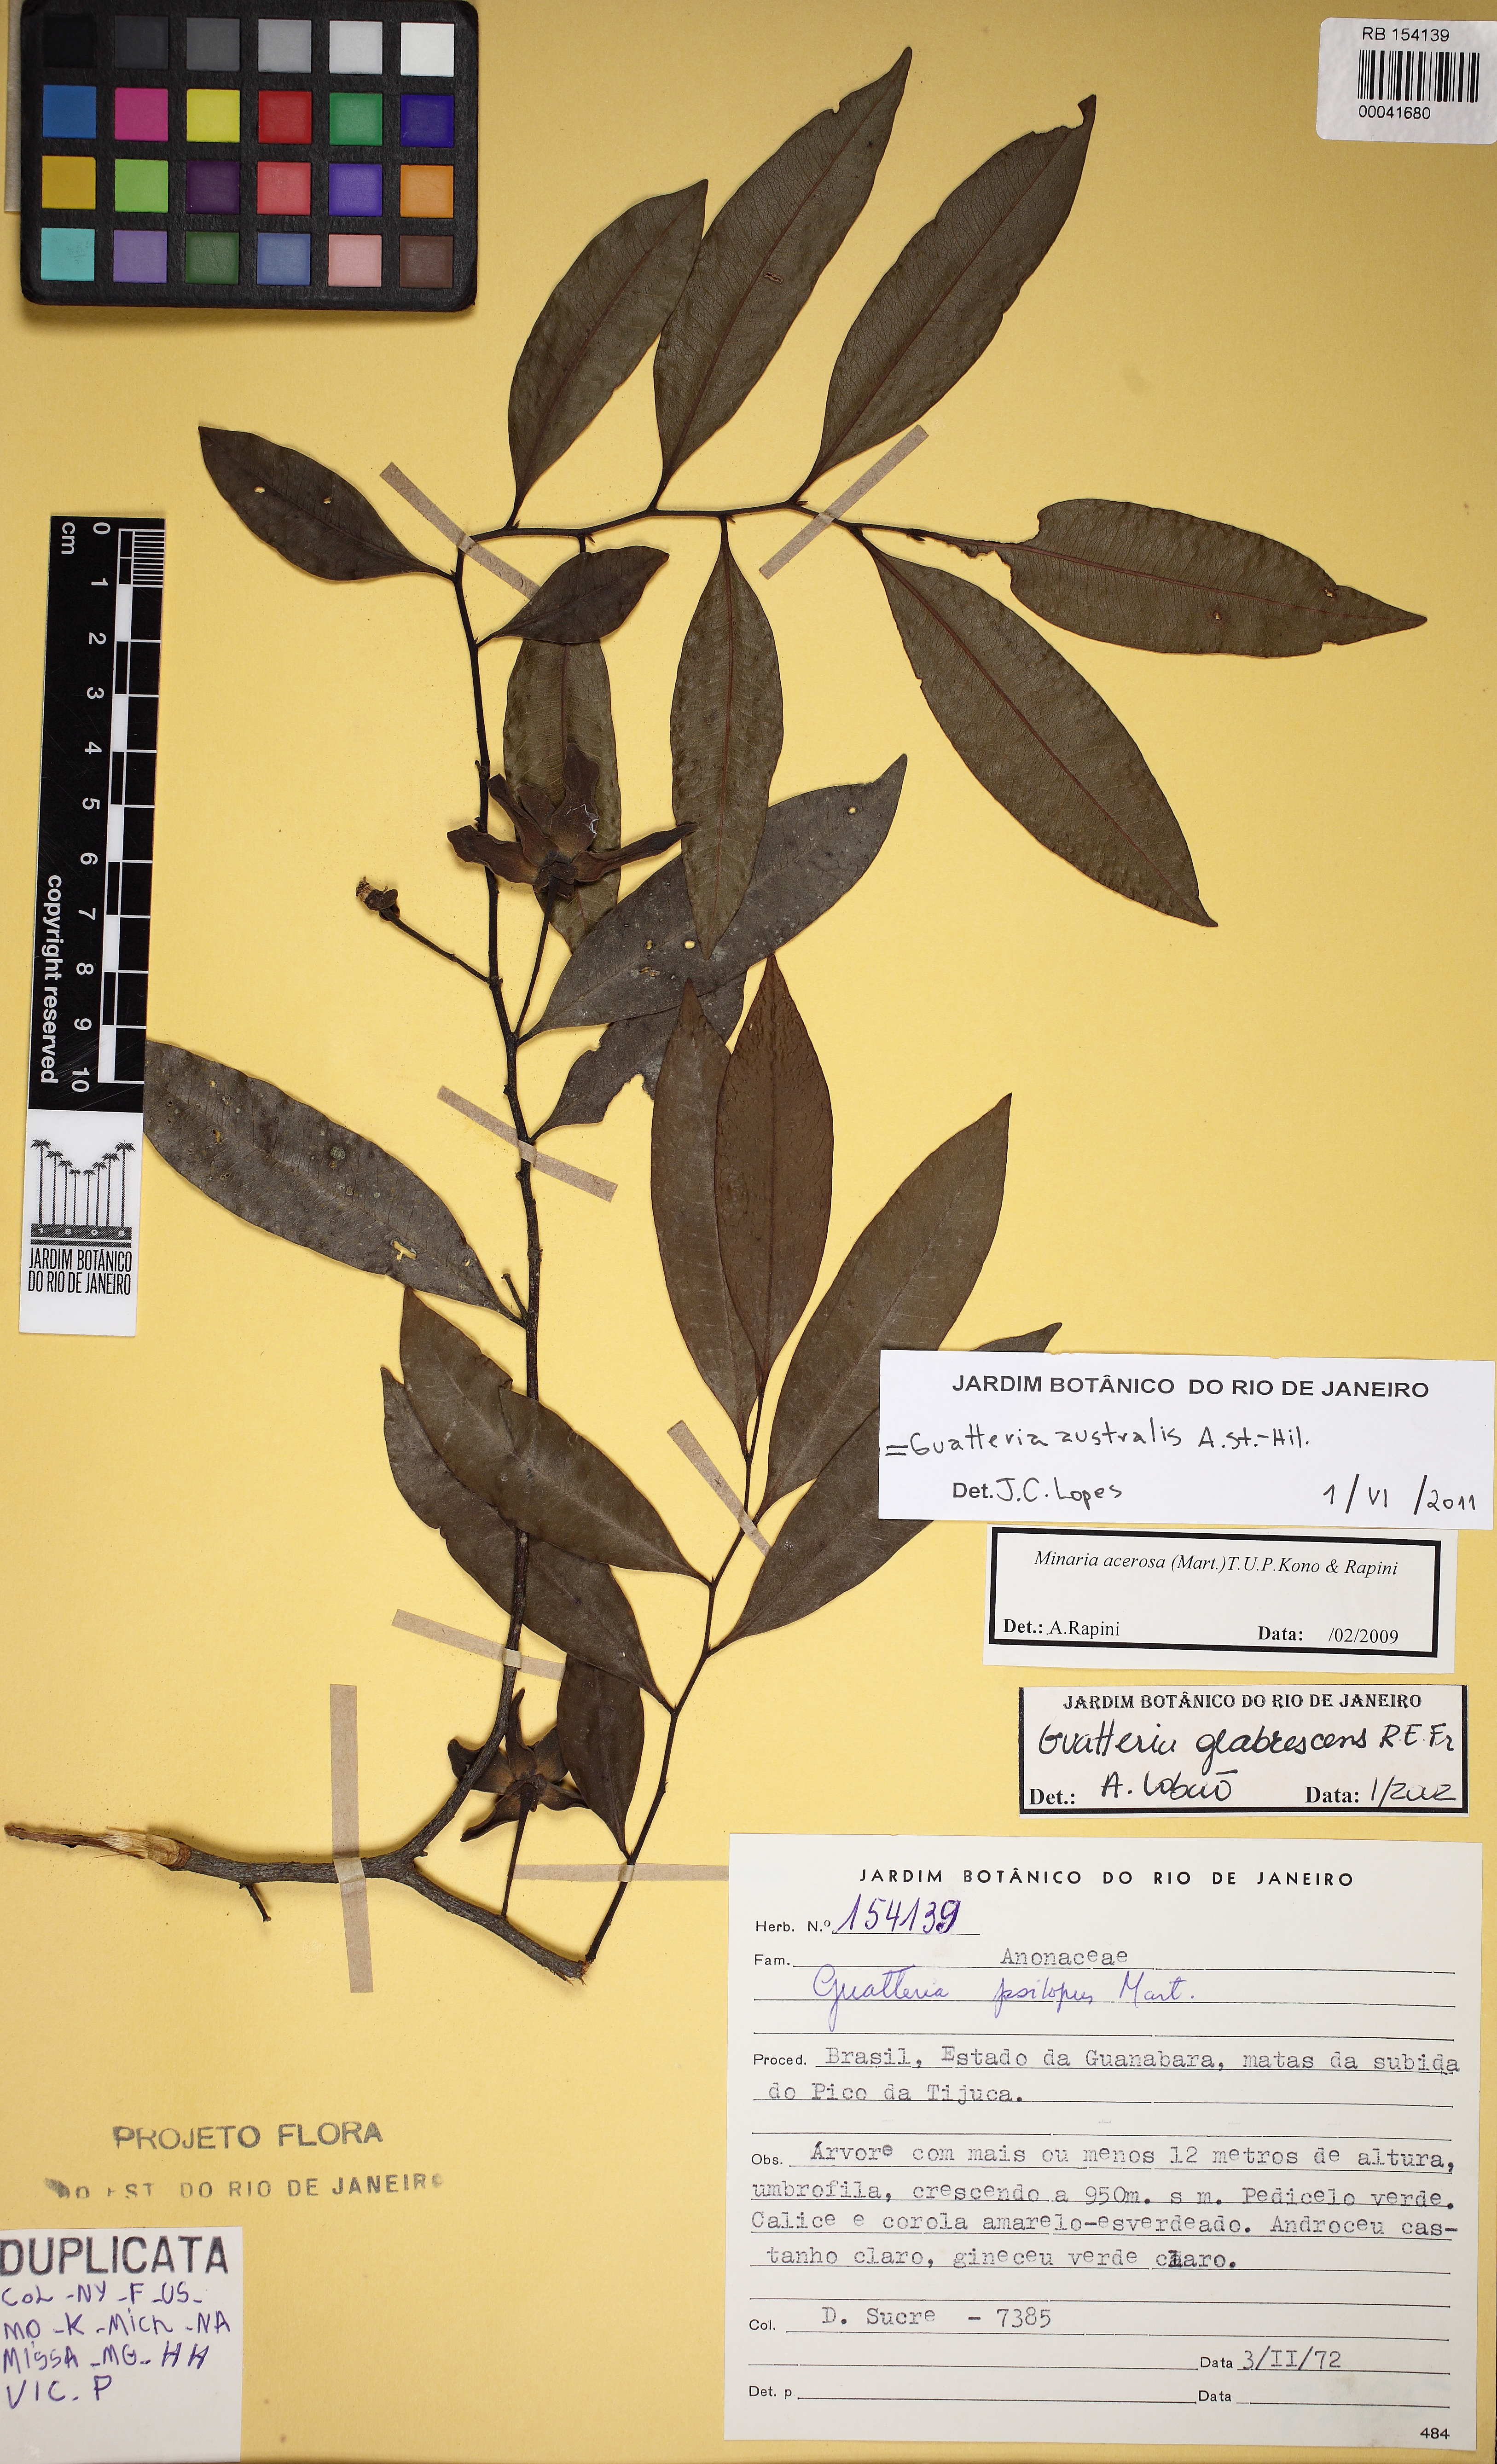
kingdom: Plantae
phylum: Tracheophyta
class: Magnoliopsida
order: Magnoliales
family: Annonaceae
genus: Guatteria
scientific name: Guatteria australis
